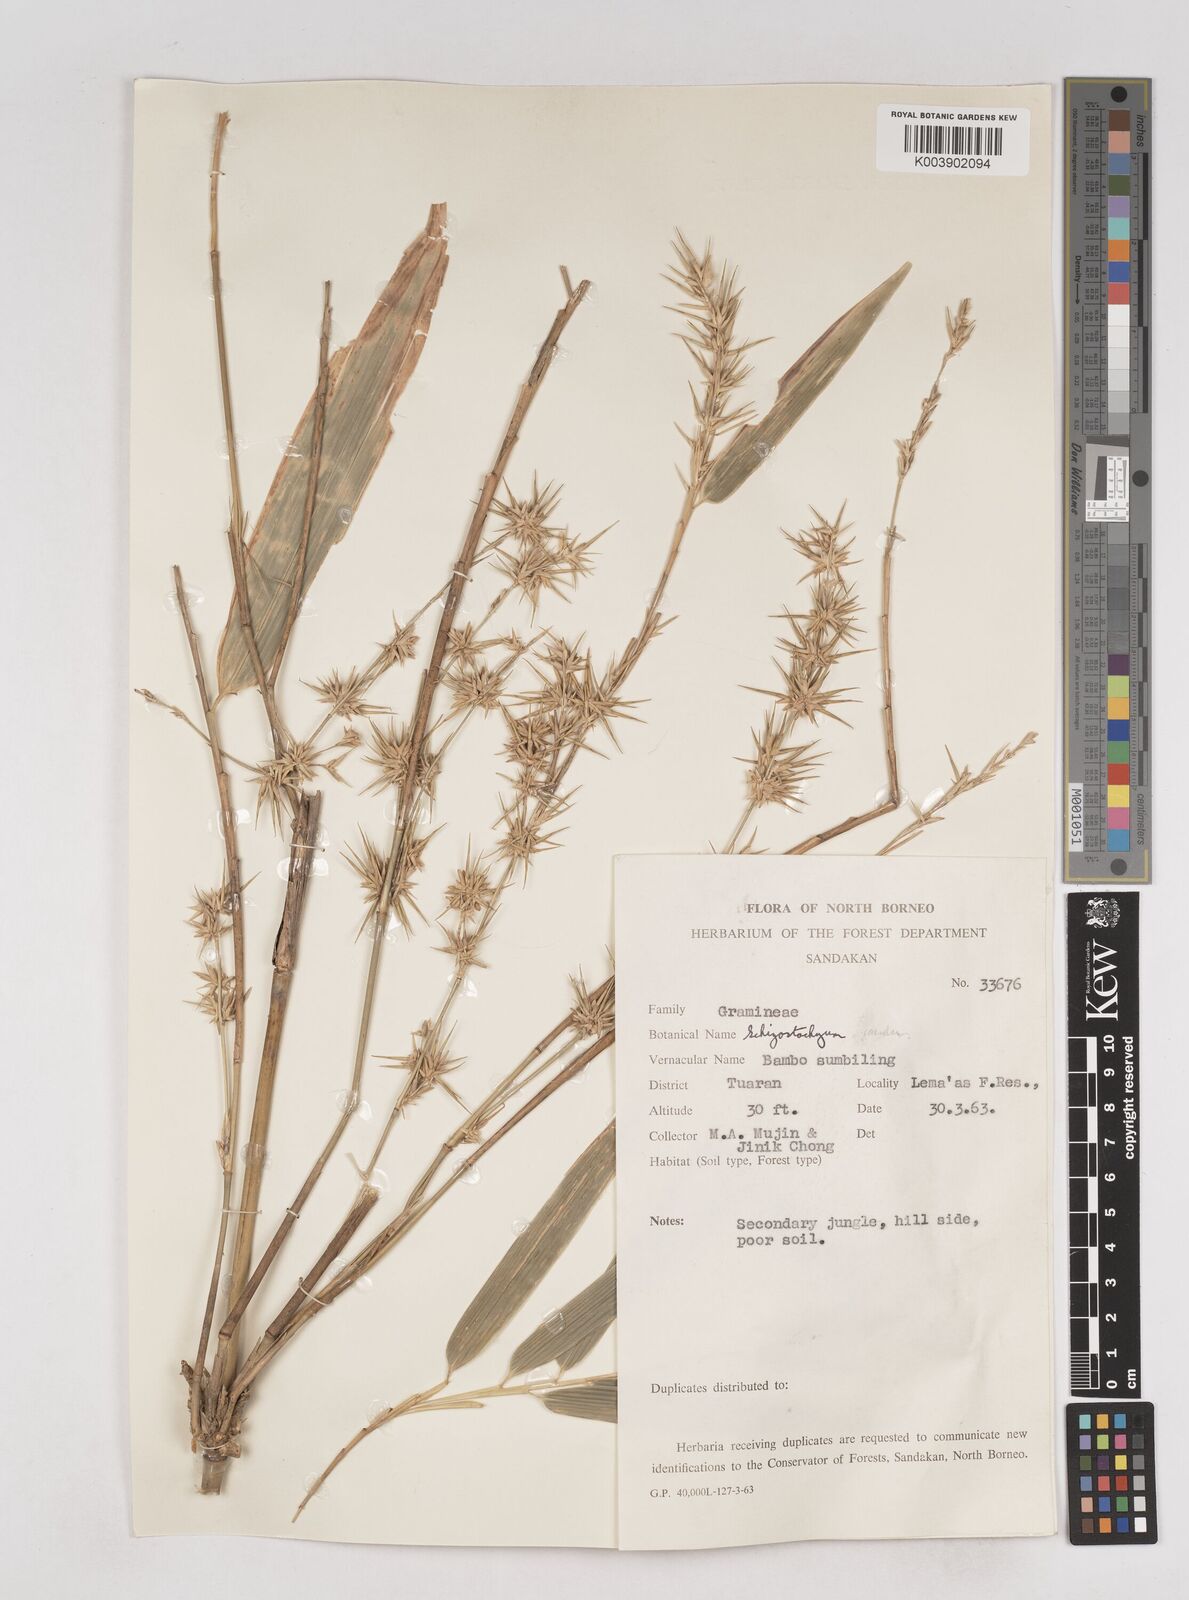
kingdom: Plantae
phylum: Tracheophyta
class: Liliopsida
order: Poales
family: Poaceae
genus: Schizostachyum
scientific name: Schizostachyum jaculans
